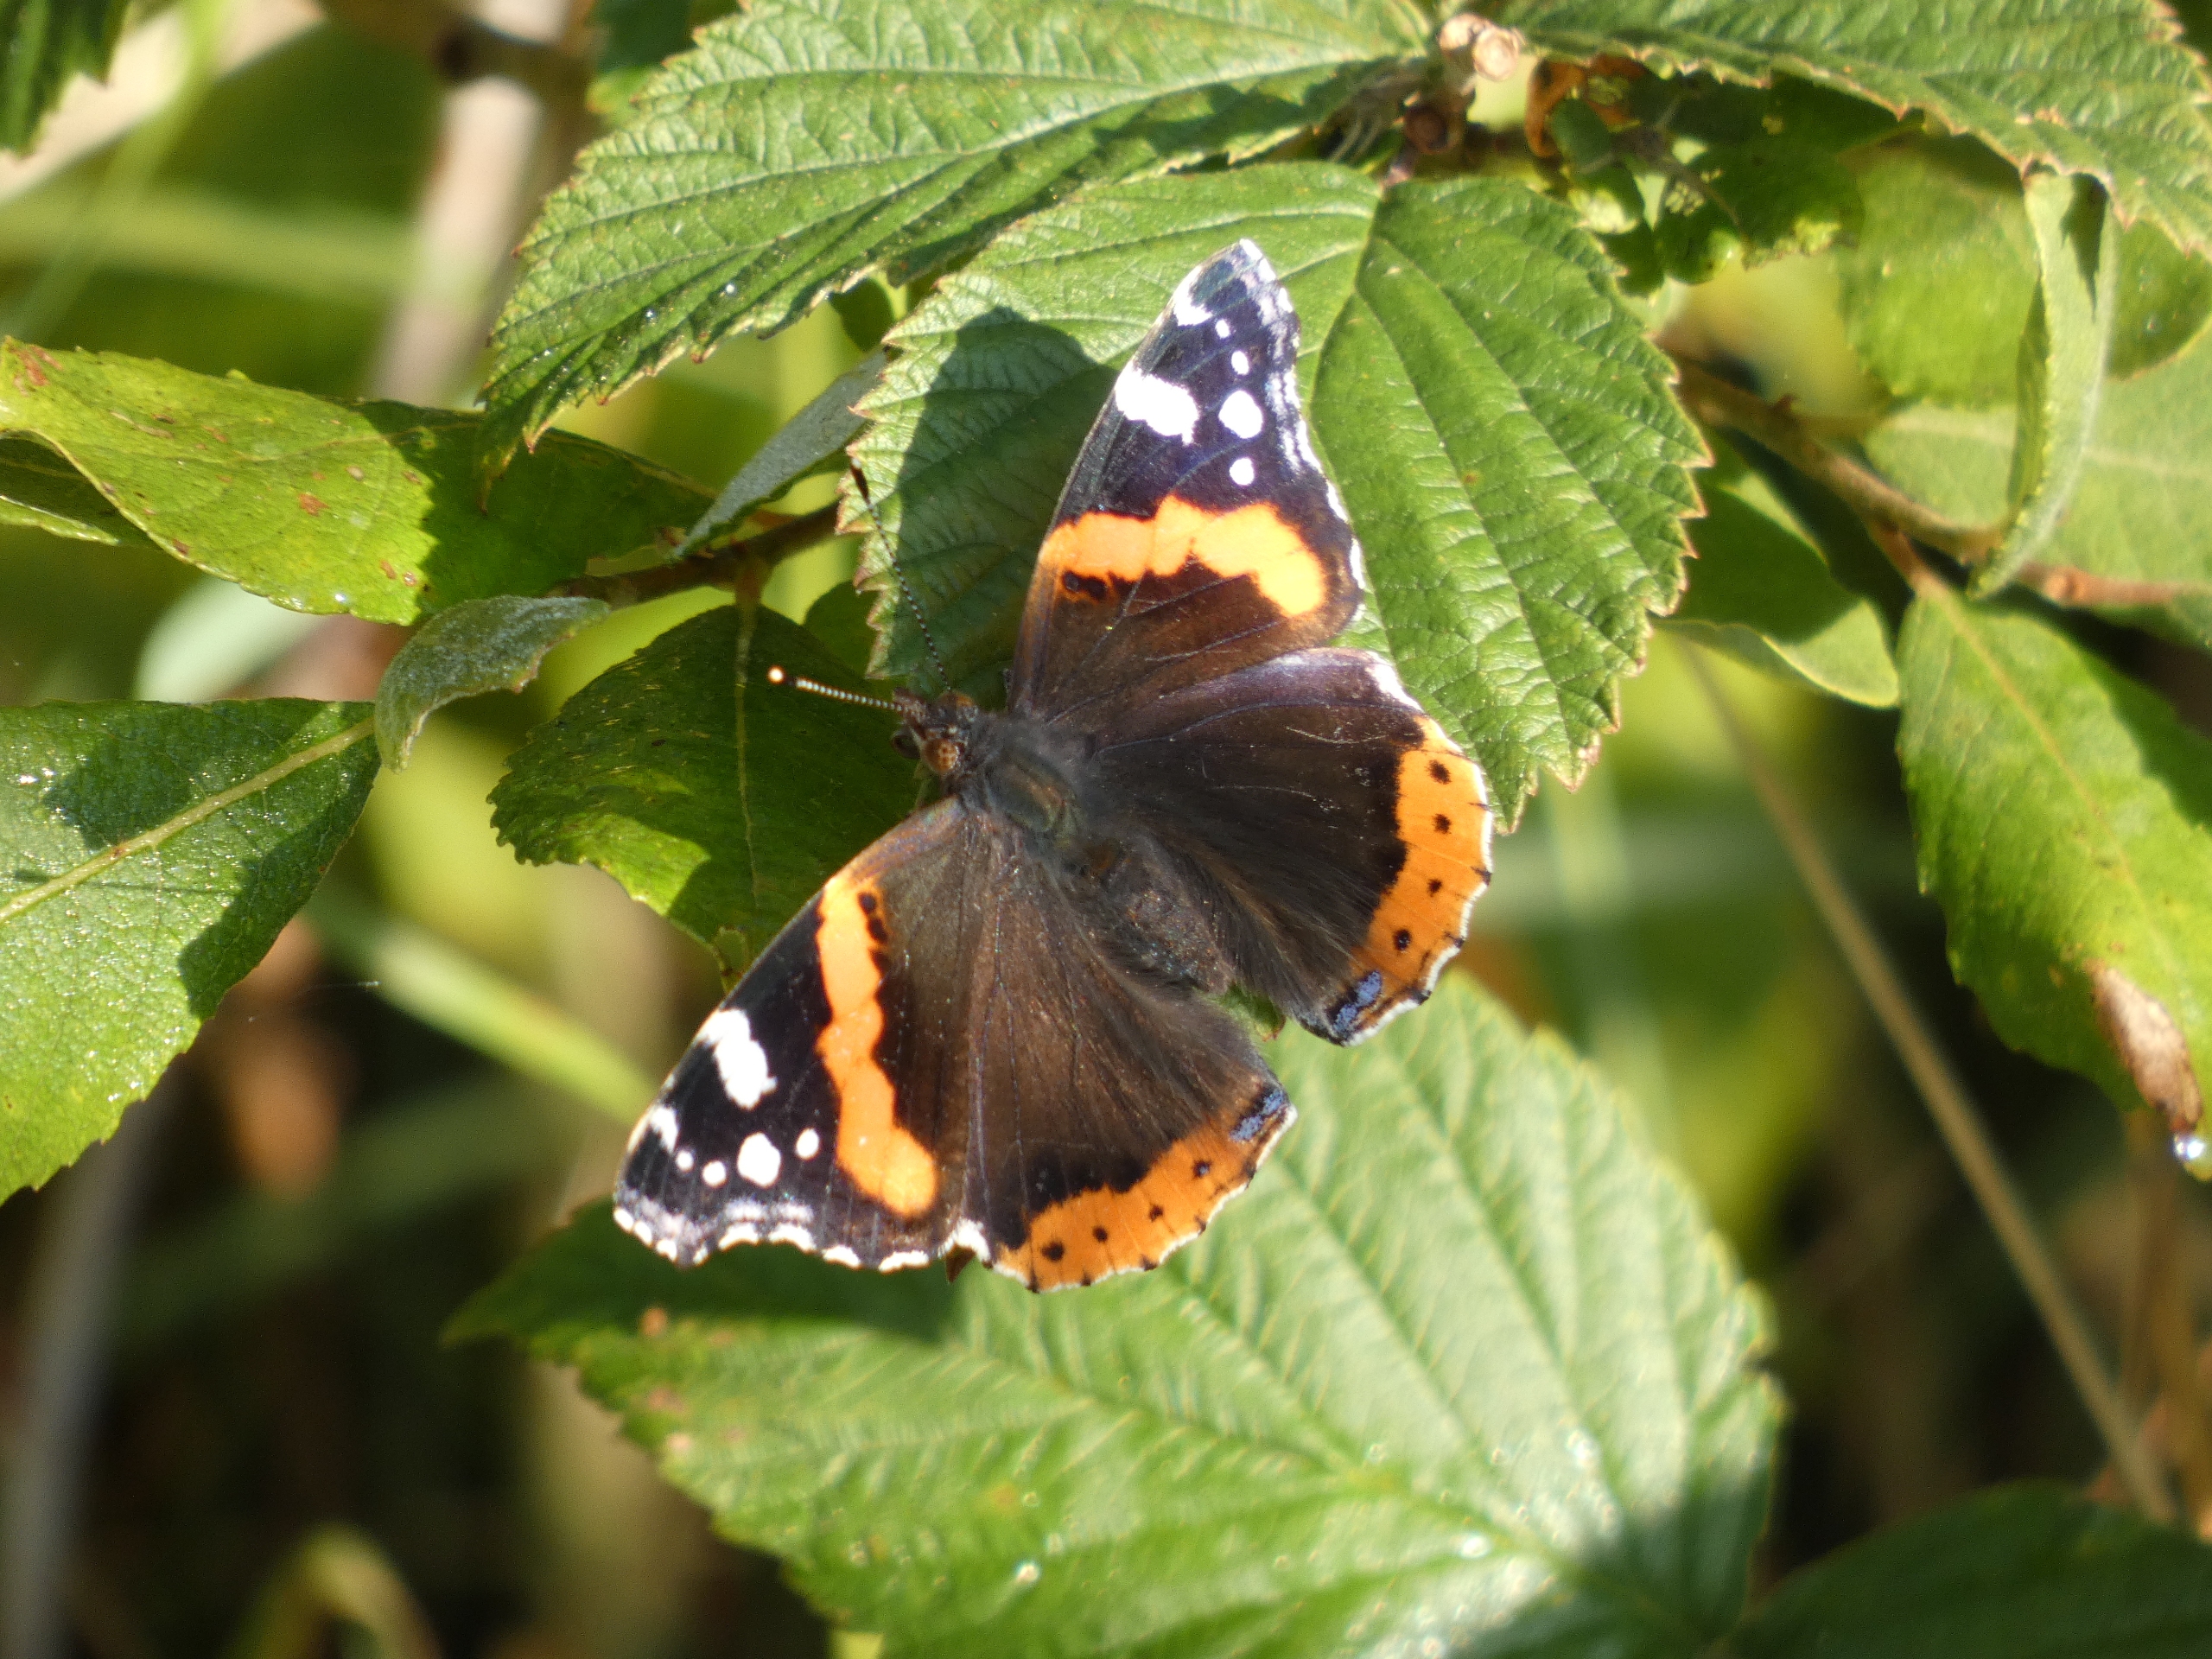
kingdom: Animalia
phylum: Arthropoda
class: Insecta
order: Lepidoptera
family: Nymphalidae
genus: Vanessa
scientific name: Vanessa atalanta
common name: Admiral
